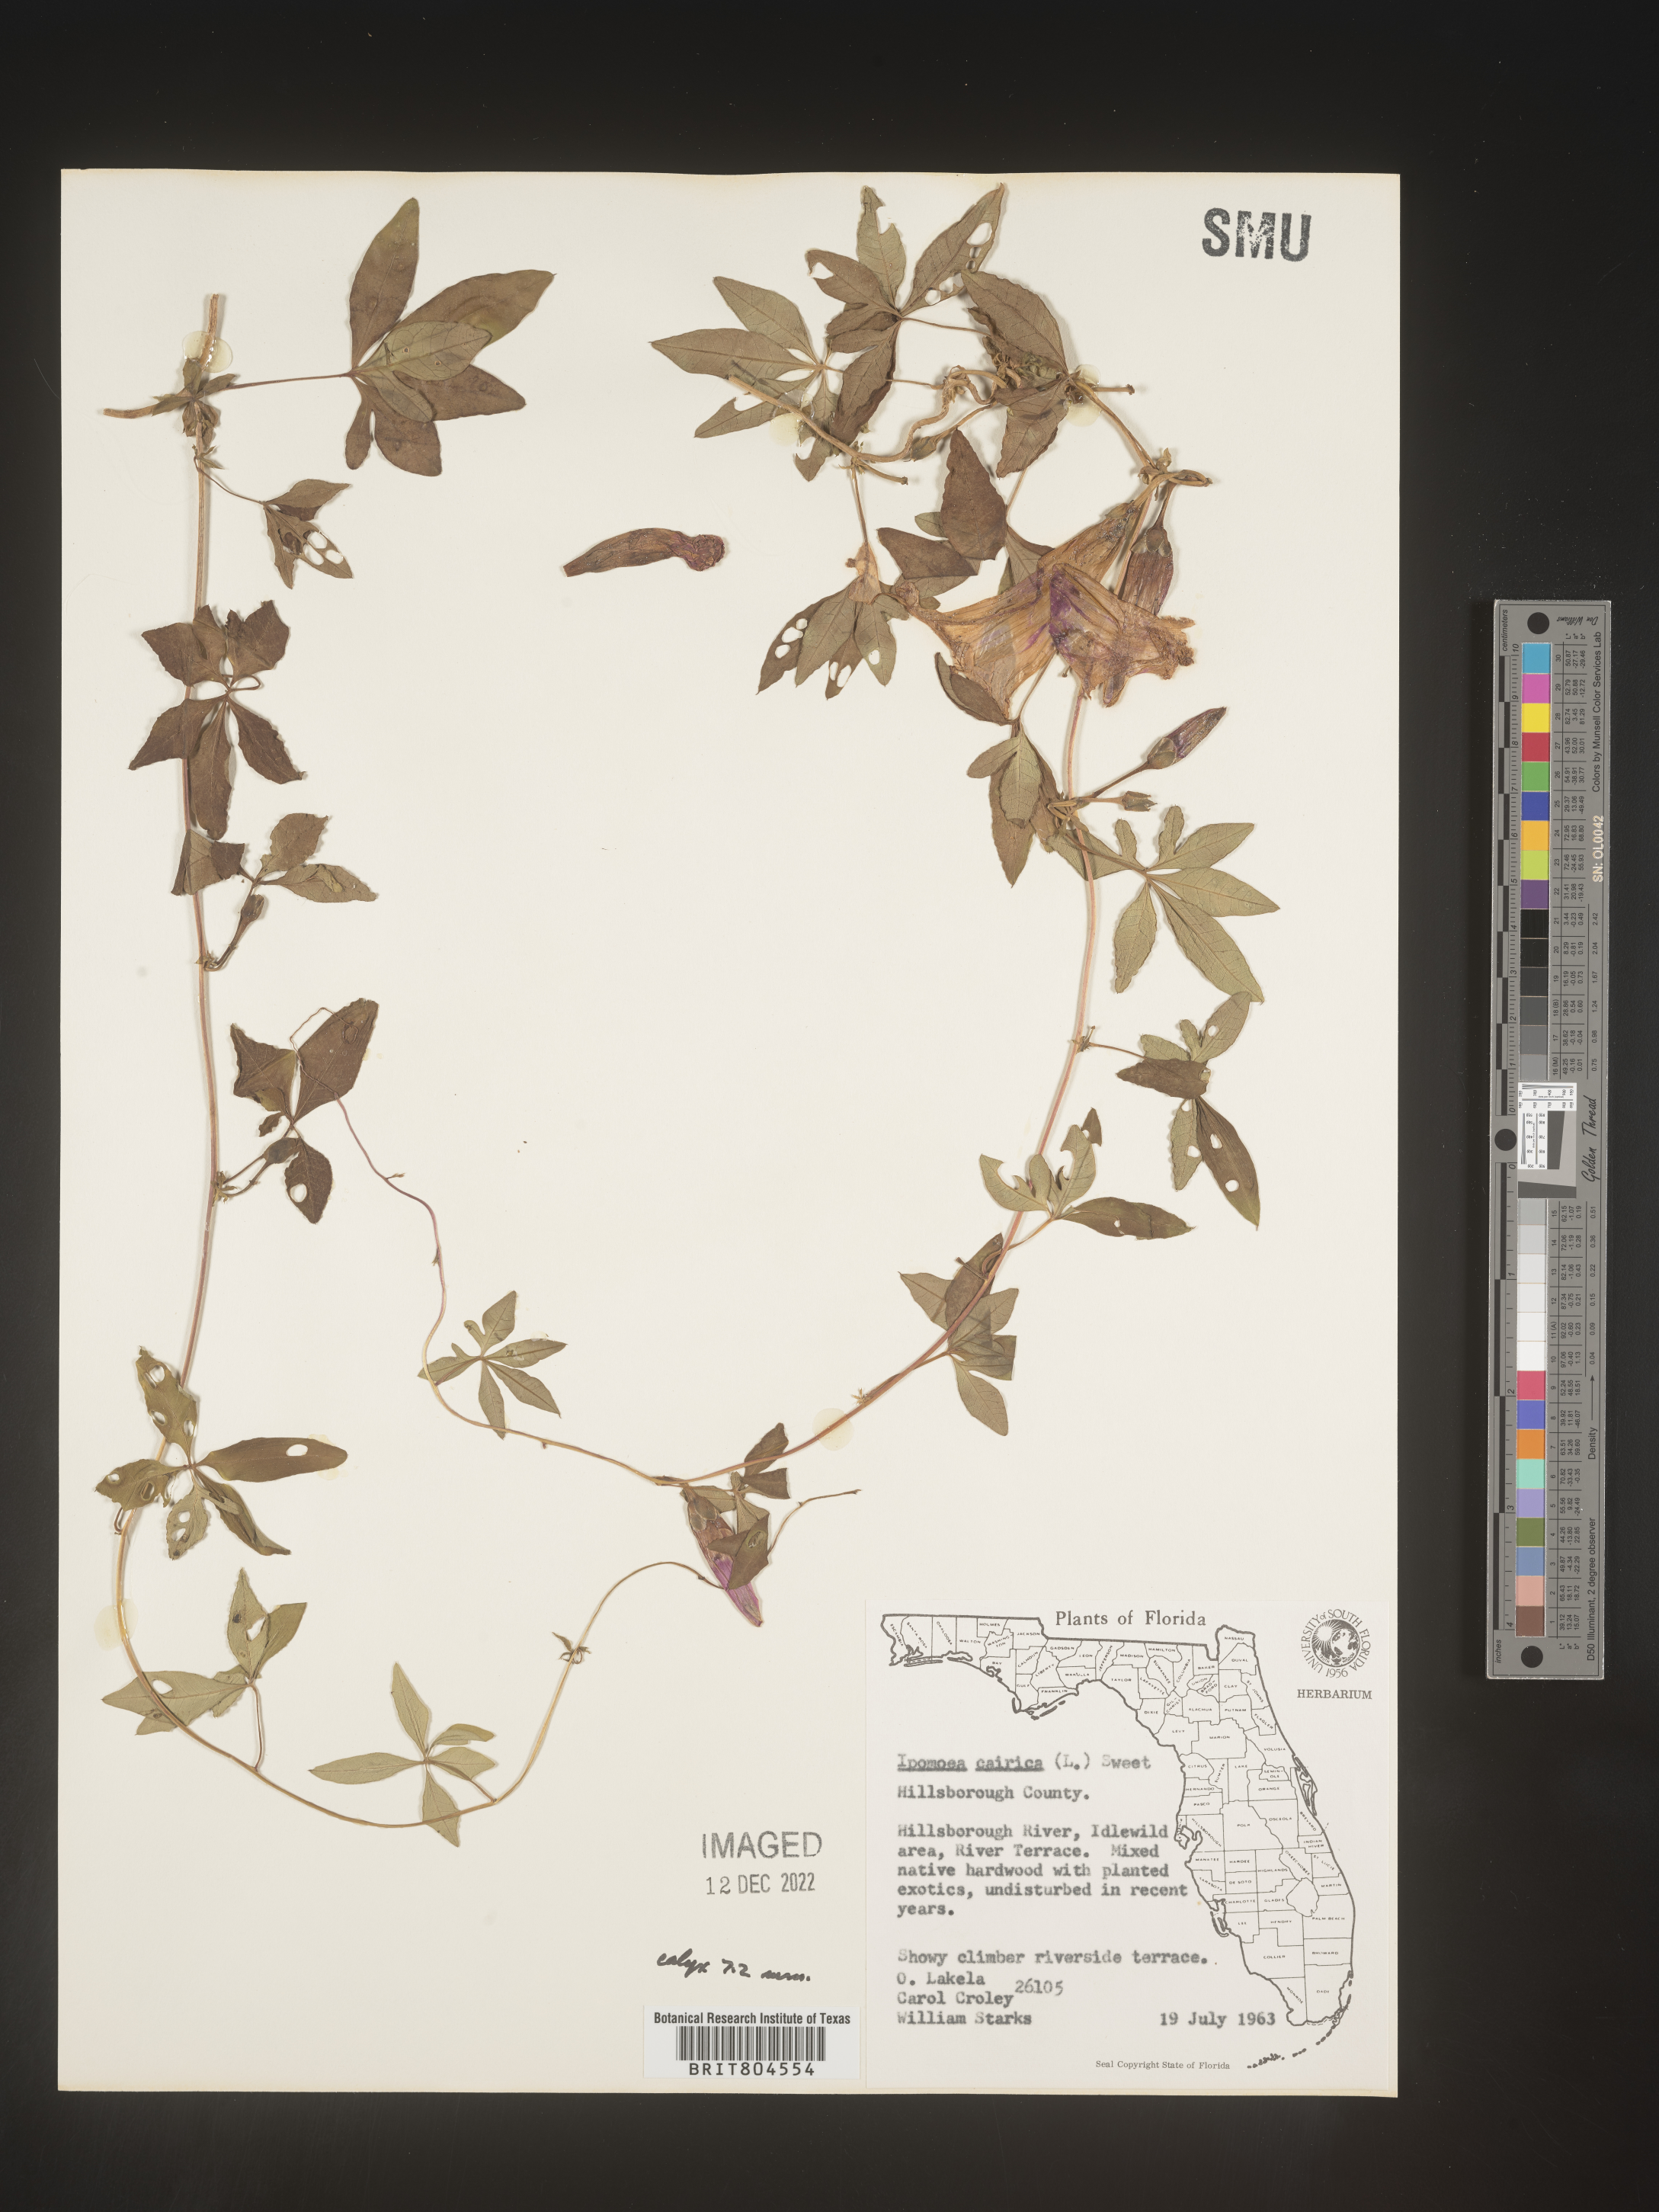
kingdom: Plantae
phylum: Tracheophyta
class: Magnoliopsida
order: Solanales
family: Convolvulaceae
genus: Ipomoea
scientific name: Ipomoea cairica
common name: Mile a minute vine
